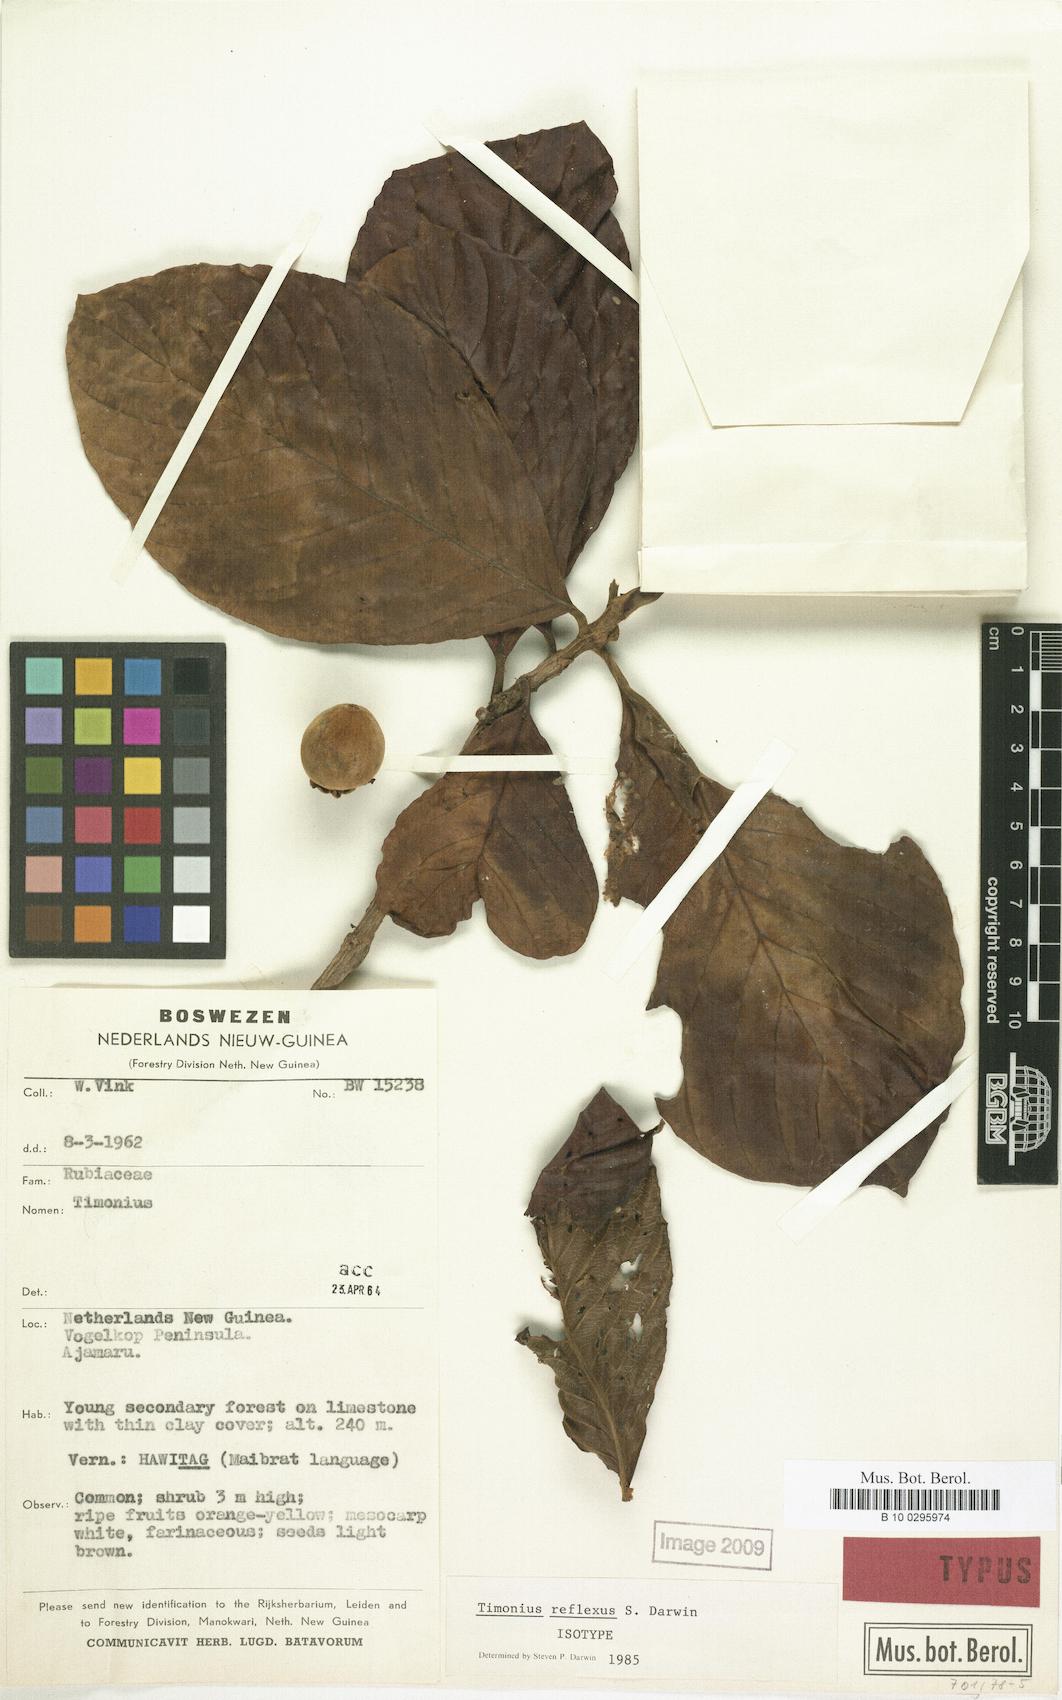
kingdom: Plantae
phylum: Tracheophyta
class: Magnoliopsida
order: Gentianales
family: Rubiaceae
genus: Timonius
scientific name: Timonius reflexus
